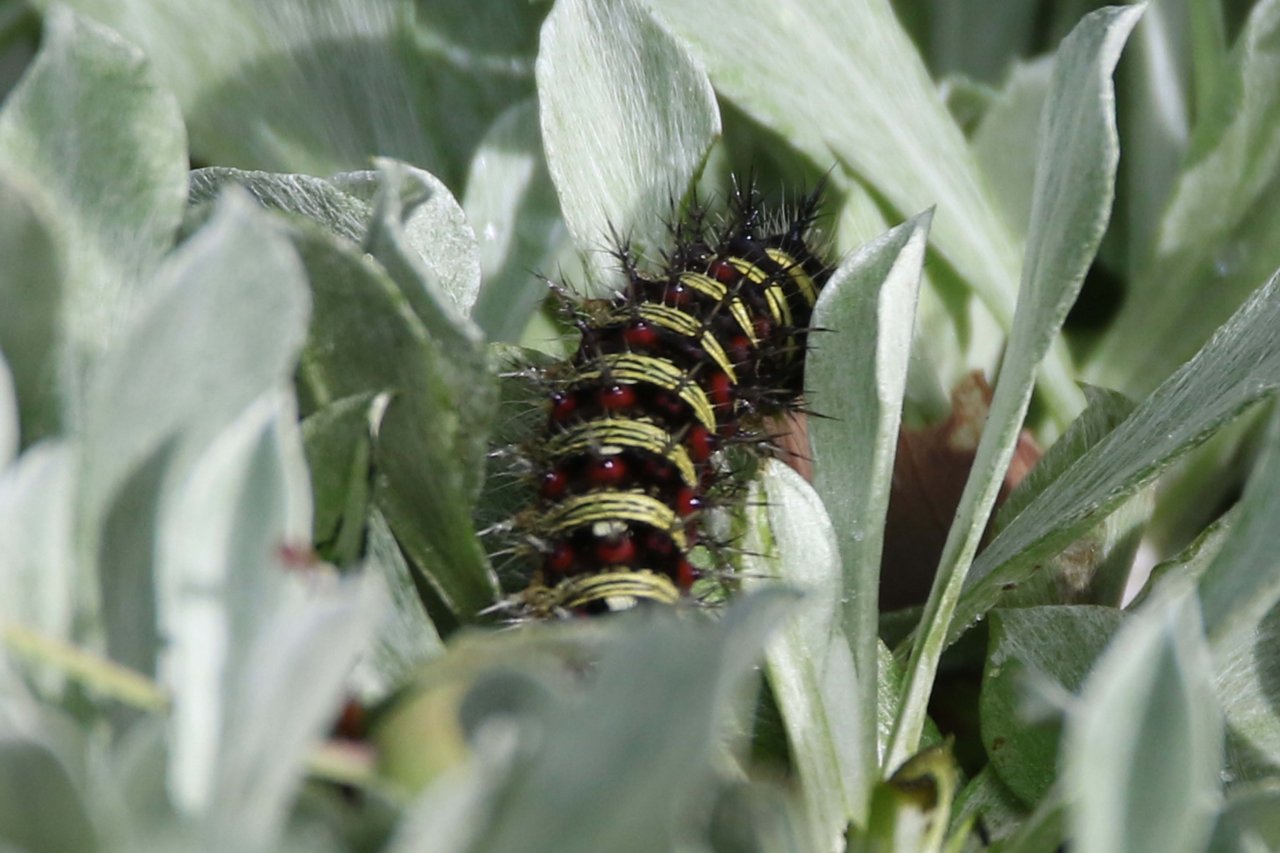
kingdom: Animalia
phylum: Arthropoda
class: Insecta
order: Lepidoptera
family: Nymphalidae
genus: Vanessa
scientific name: Vanessa virginiensis
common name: American Lady
